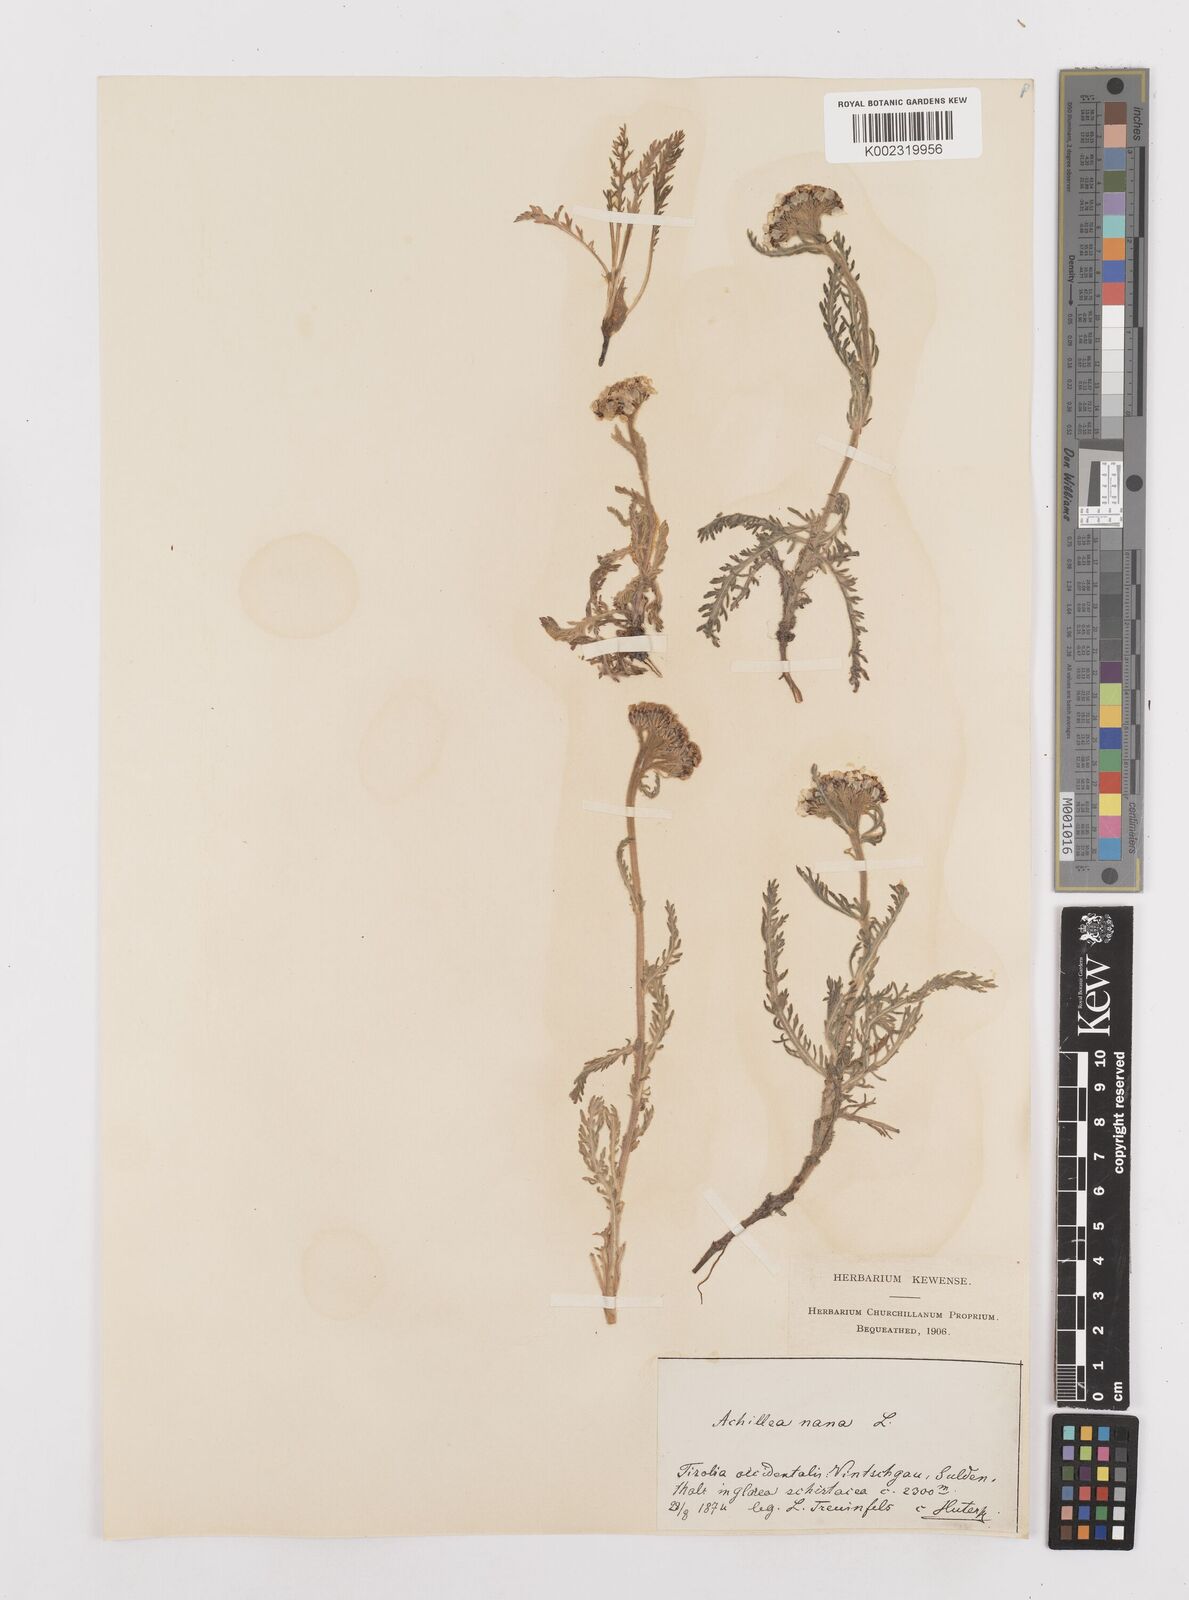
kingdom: Plantae
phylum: Tracheophyta
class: Magnoliopsida
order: Asterales
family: Asteraceae
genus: Achillea
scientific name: Achillea nana
